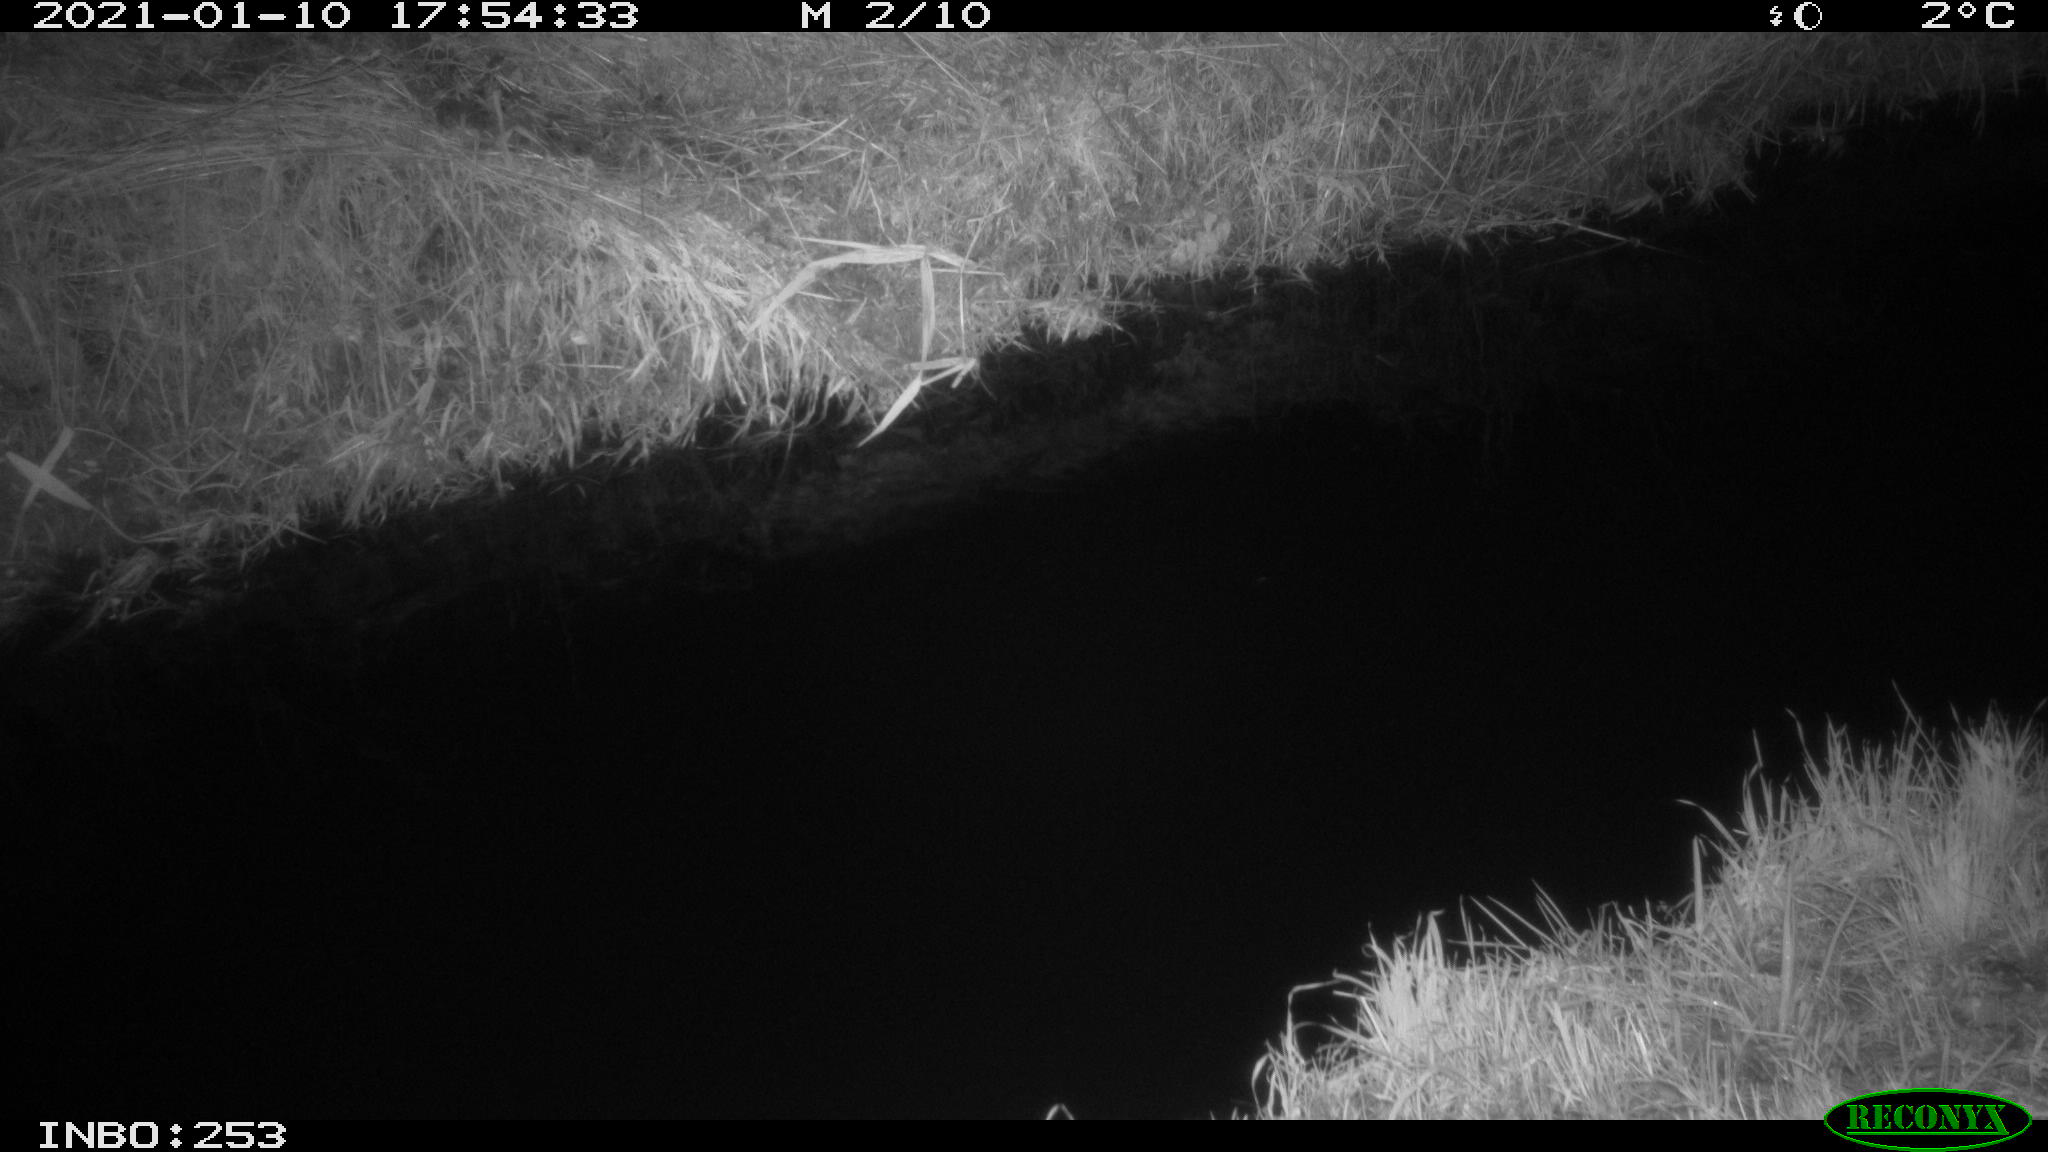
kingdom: Animalia
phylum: Chordata
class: Mammalia
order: Lagomorpha
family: Leporidae
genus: Lepus
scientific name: Lepus europaeus
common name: European hare
